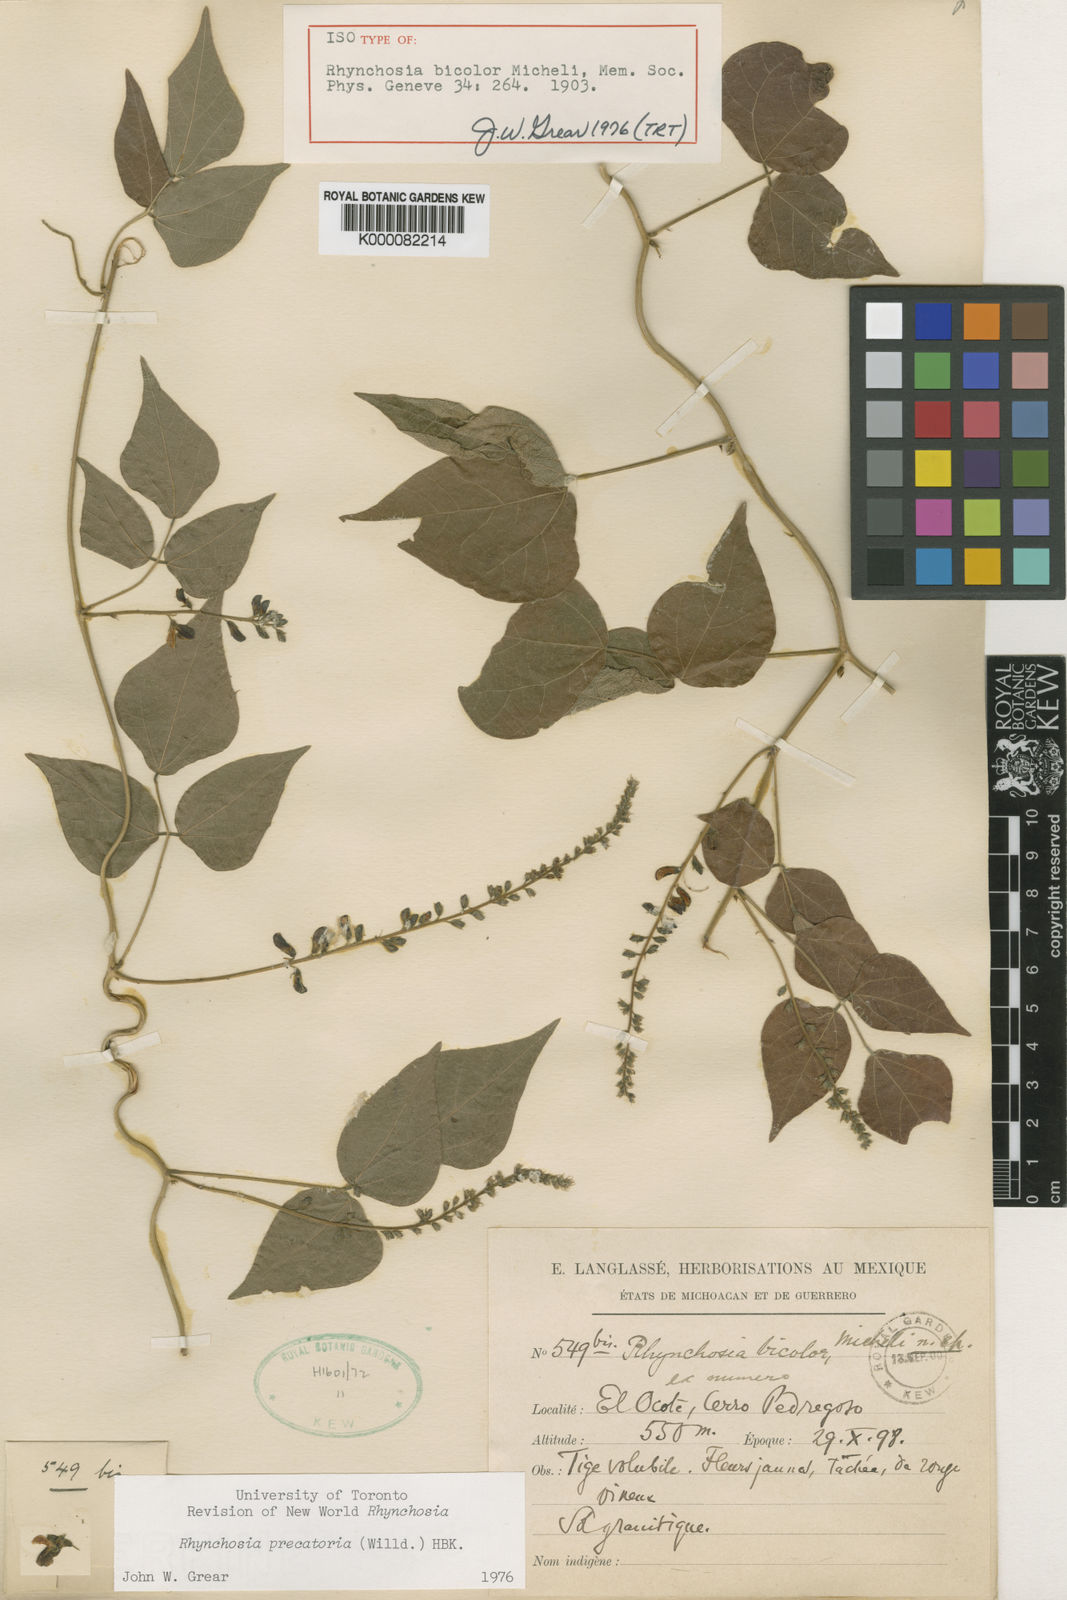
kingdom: Plantae
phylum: Tracheophyta
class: Magnoliopsida
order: Fabales
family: Fabaceae
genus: Rhynchosia
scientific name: Rhynchosia
